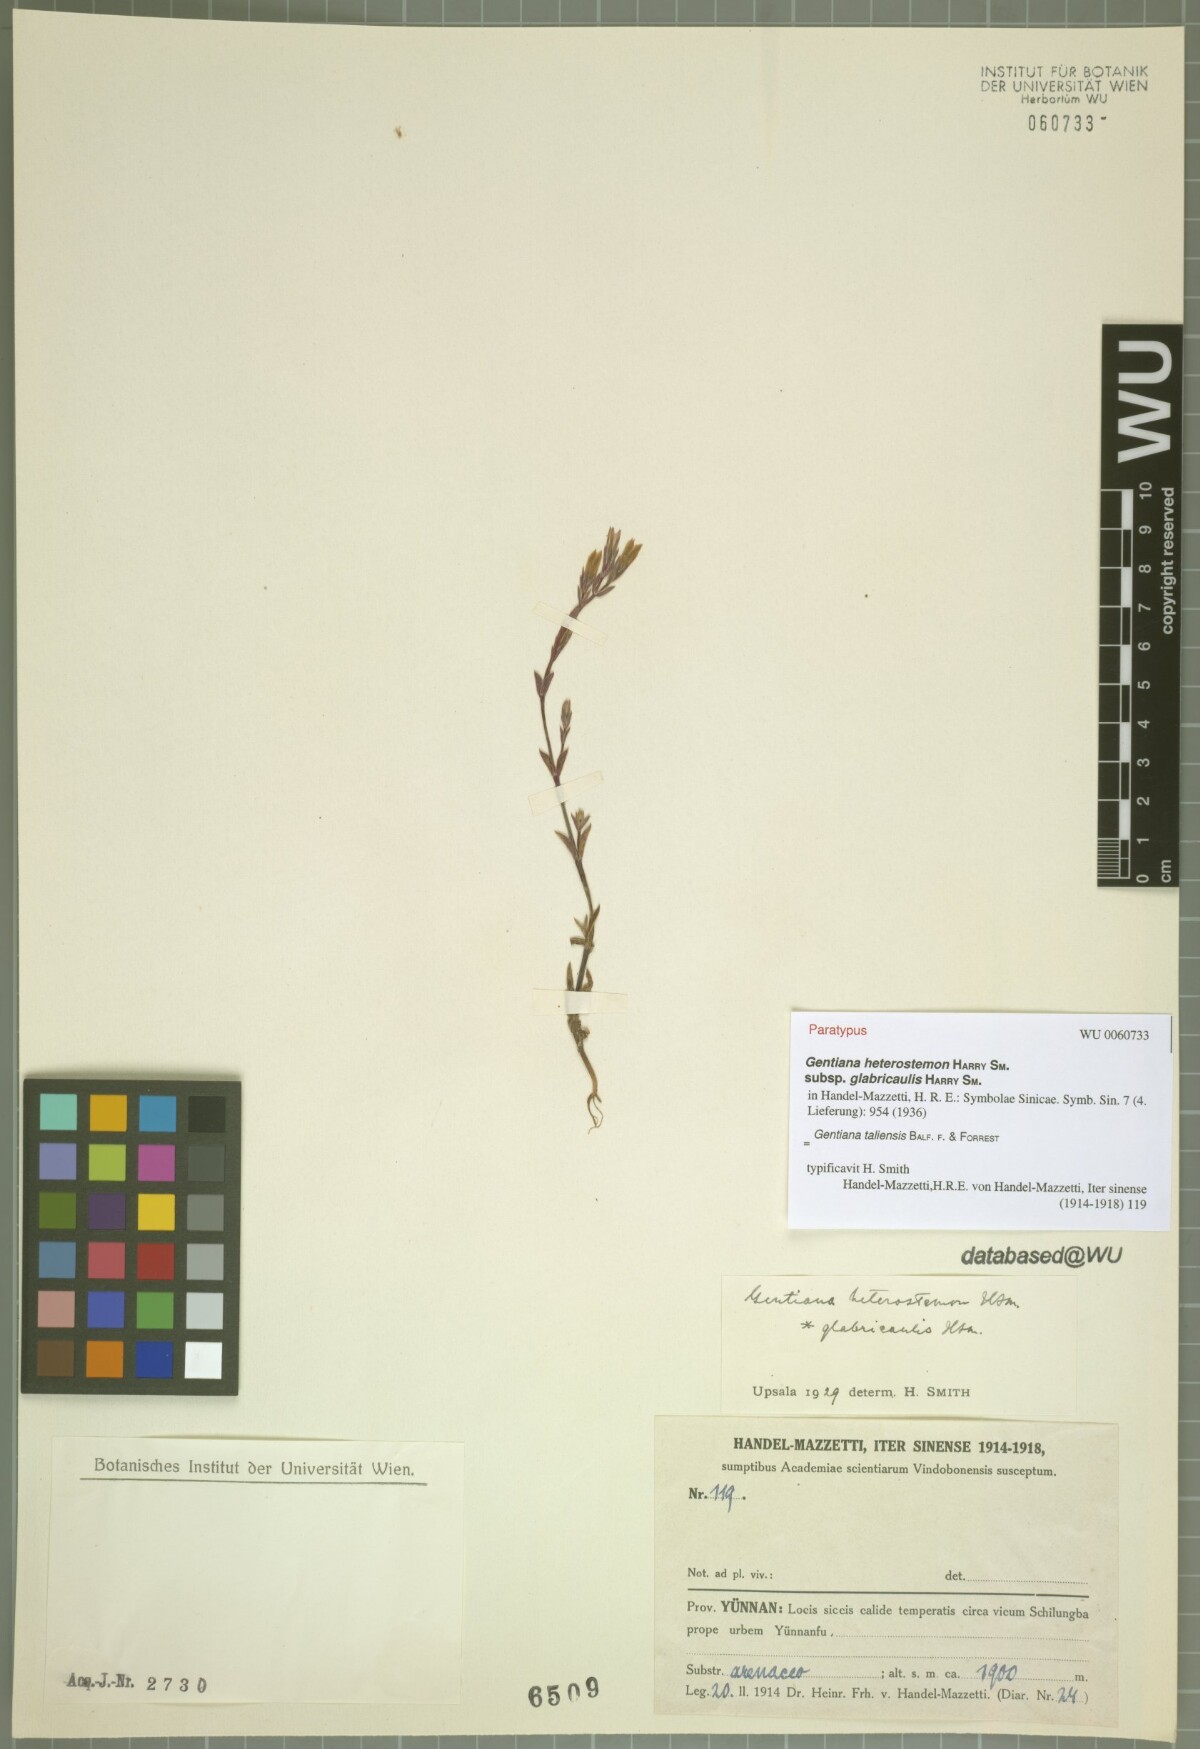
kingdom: Plantae
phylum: Tracheophyta
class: Magnoliopsida
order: Gentianales
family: Gentianaceae
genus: Gentiana
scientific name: Gentiana taliensis
